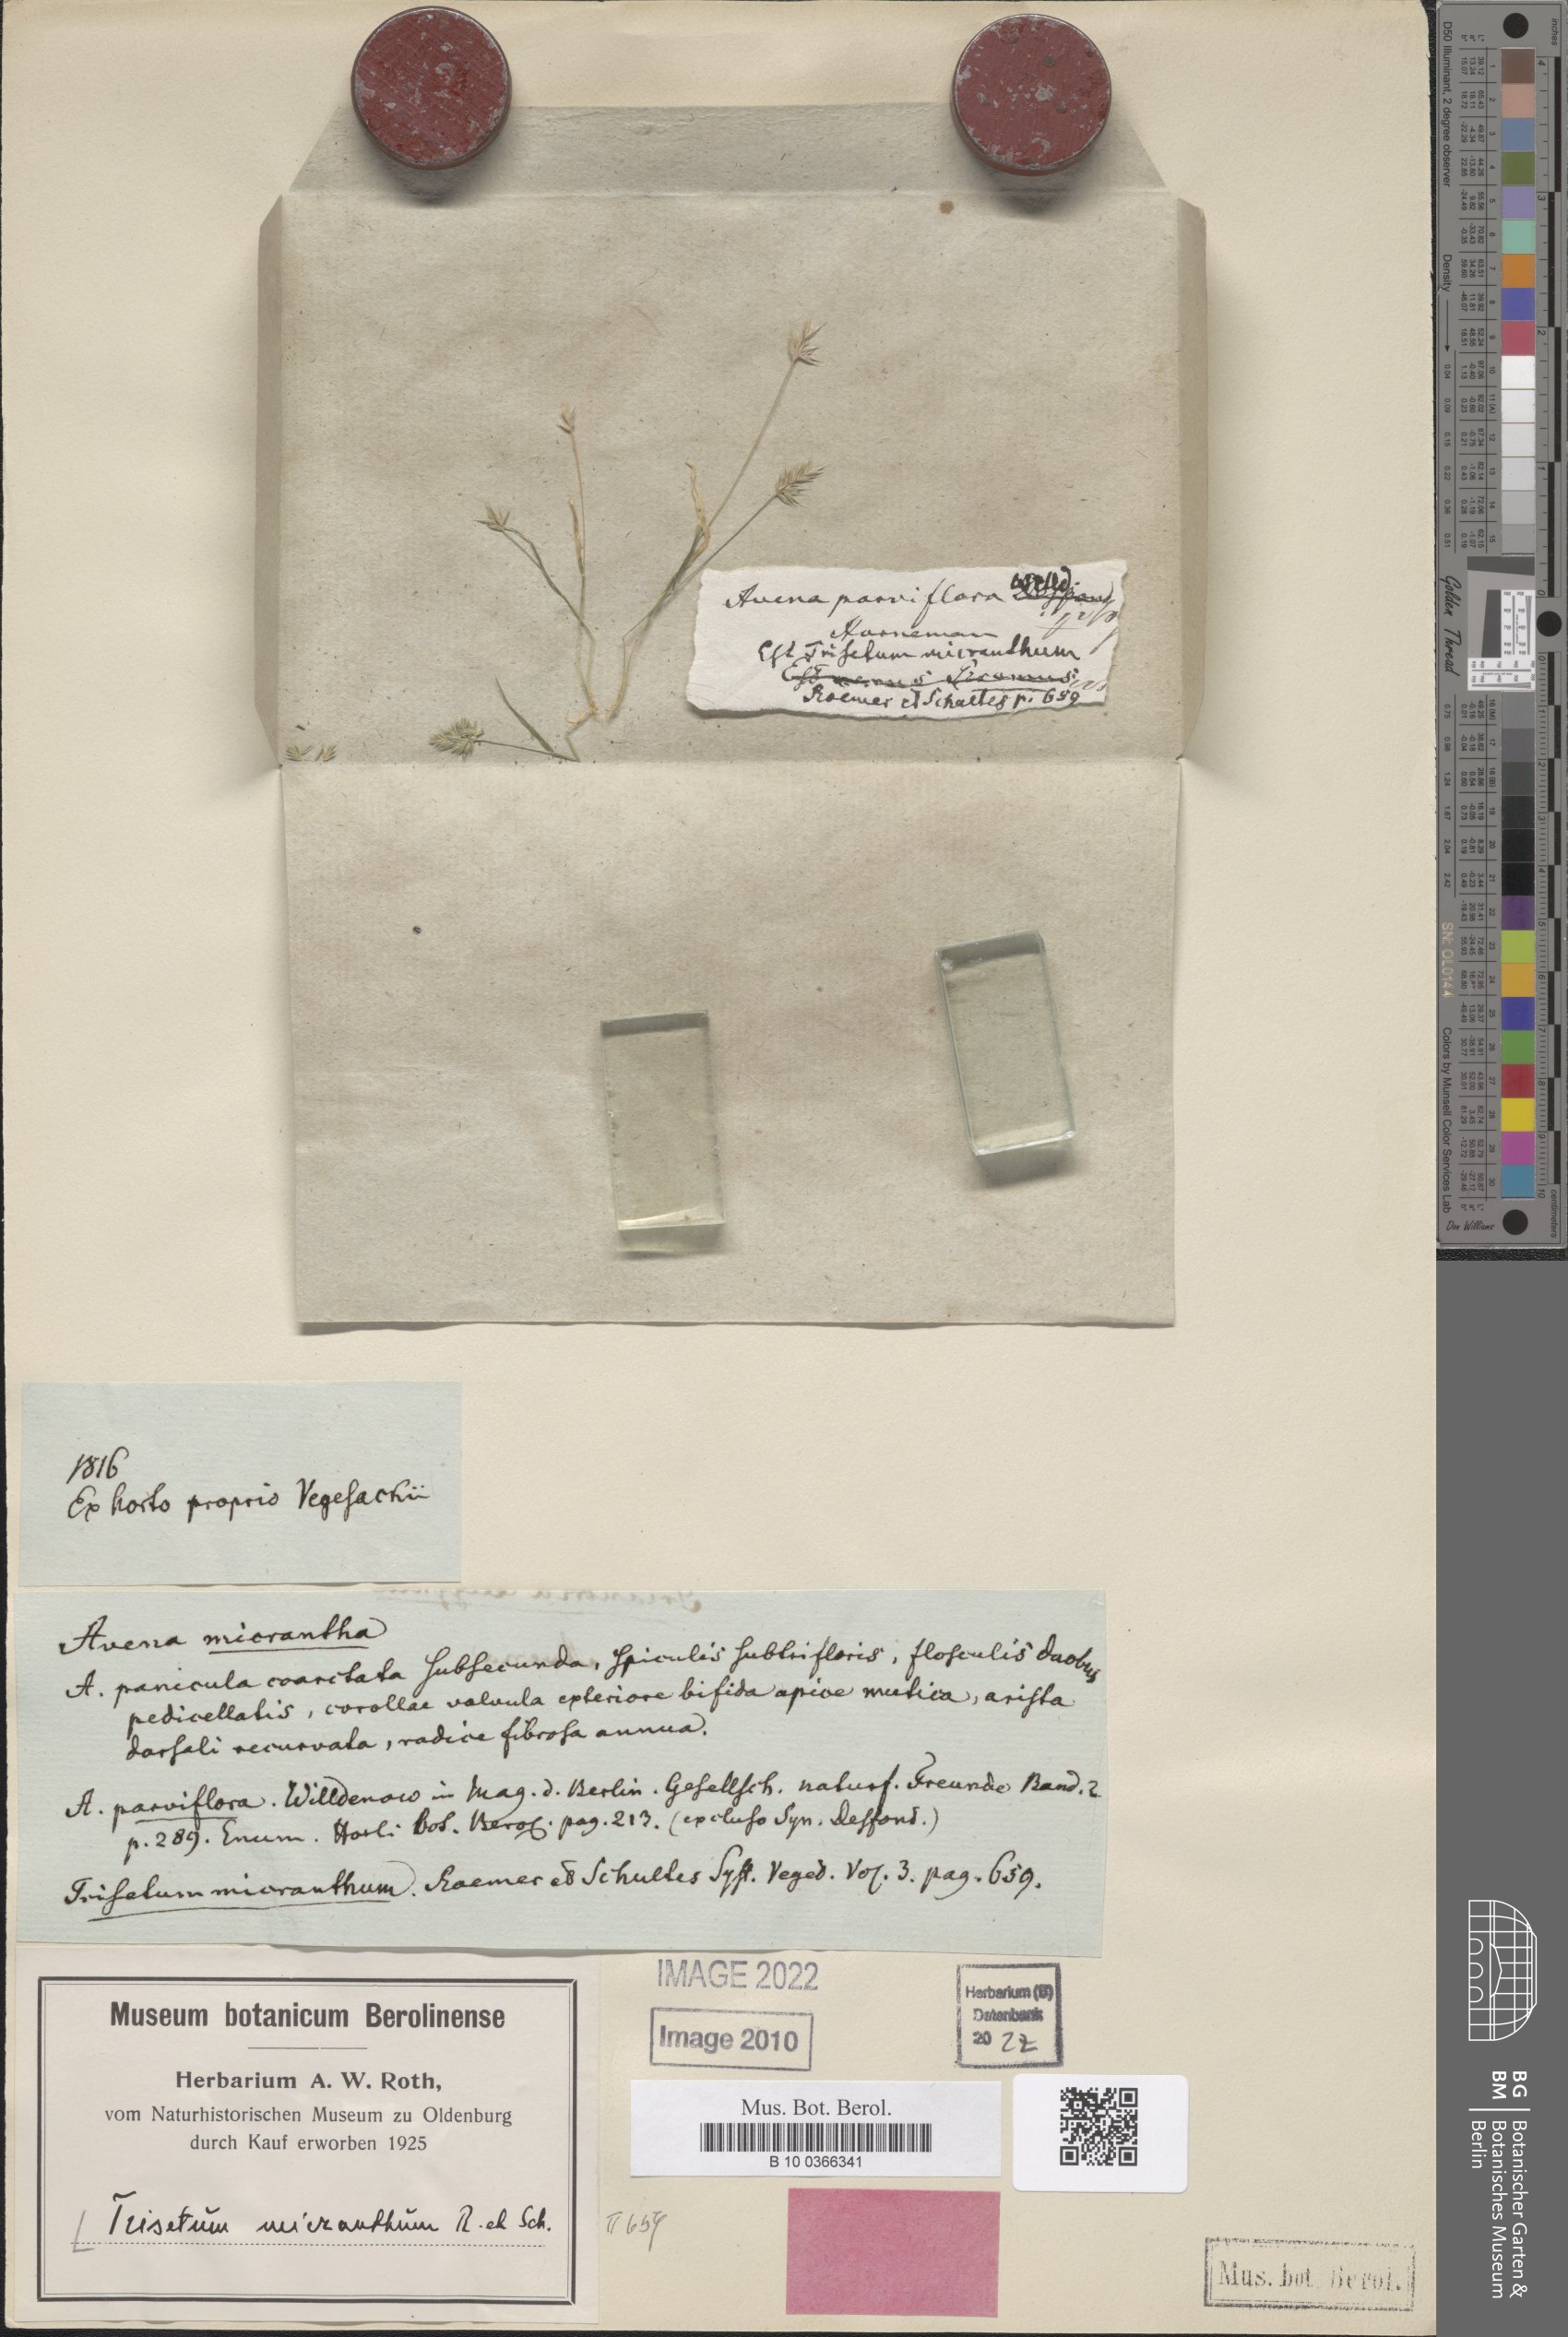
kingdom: Plantae
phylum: Tracheophyta
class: Liliopsida
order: Poales
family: Poaceae
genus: Trisetum
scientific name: Trisetum micranthum
